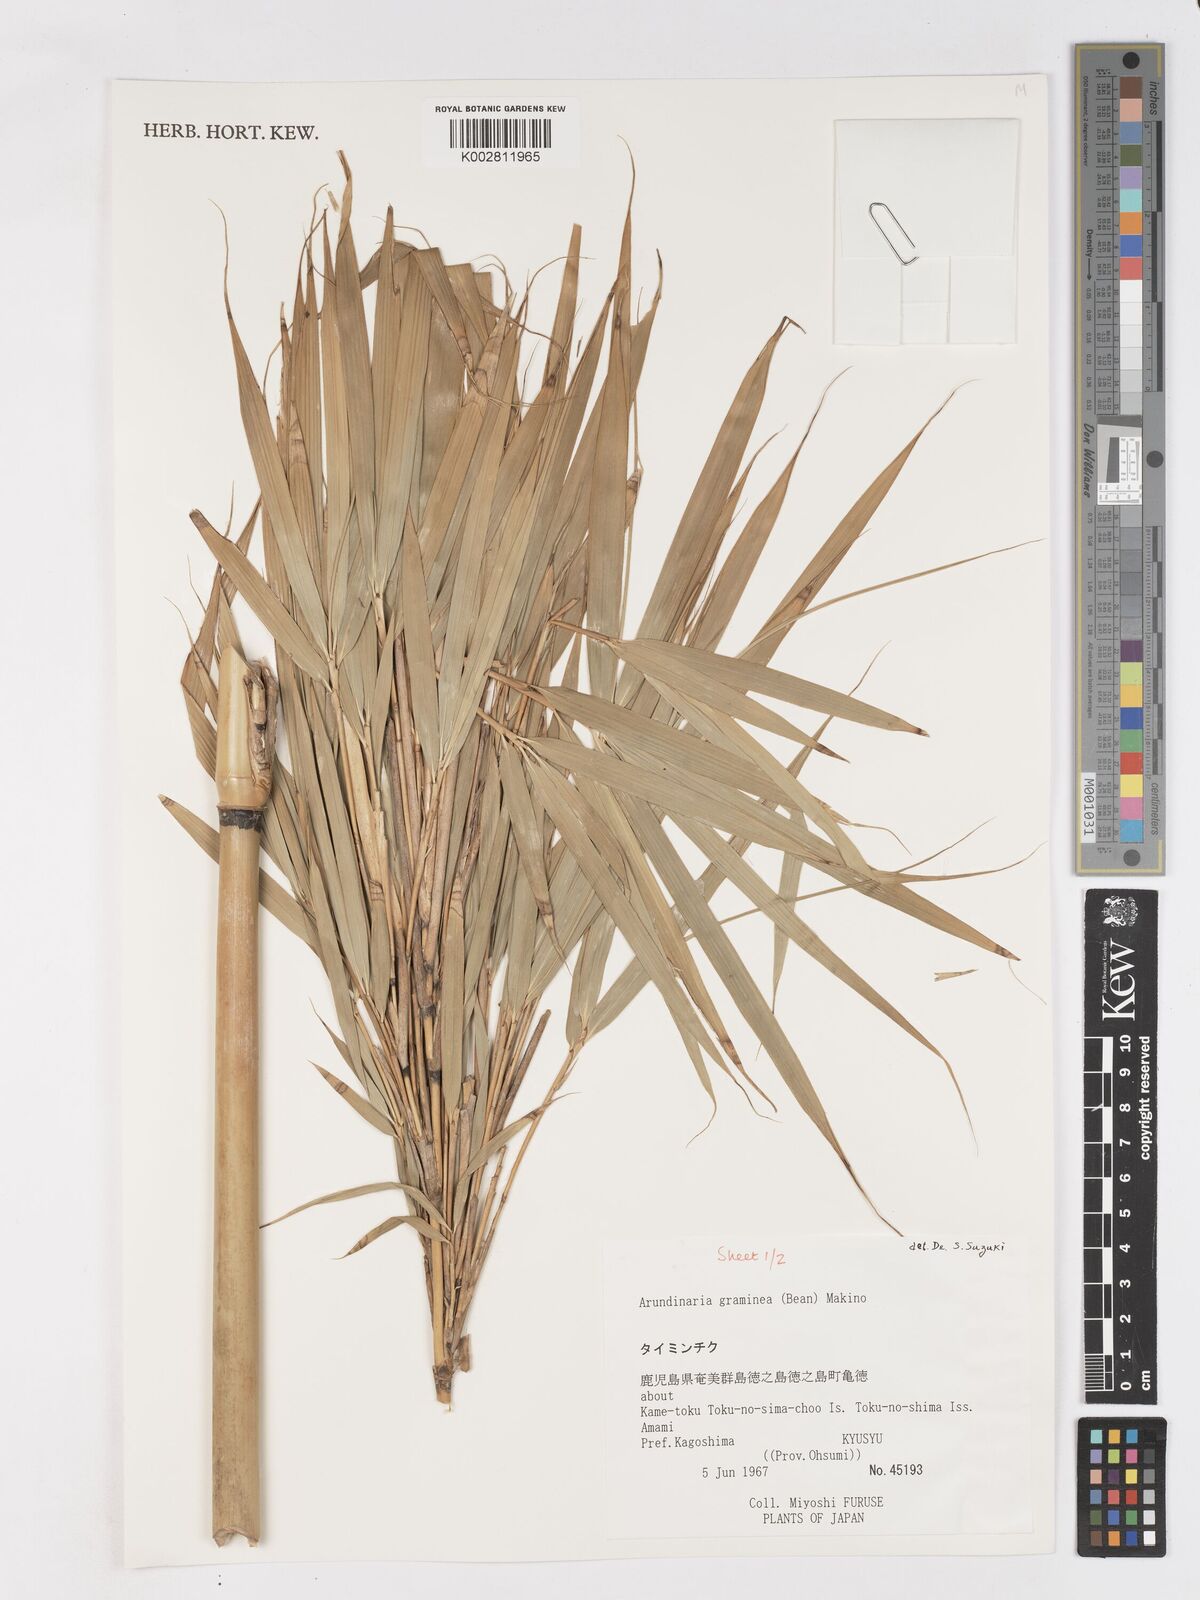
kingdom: Plantae
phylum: Tracheophyta
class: Liliopsida
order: Poales
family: Poaceae
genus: Pleioblastus
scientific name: Pleioblastus gramineus
